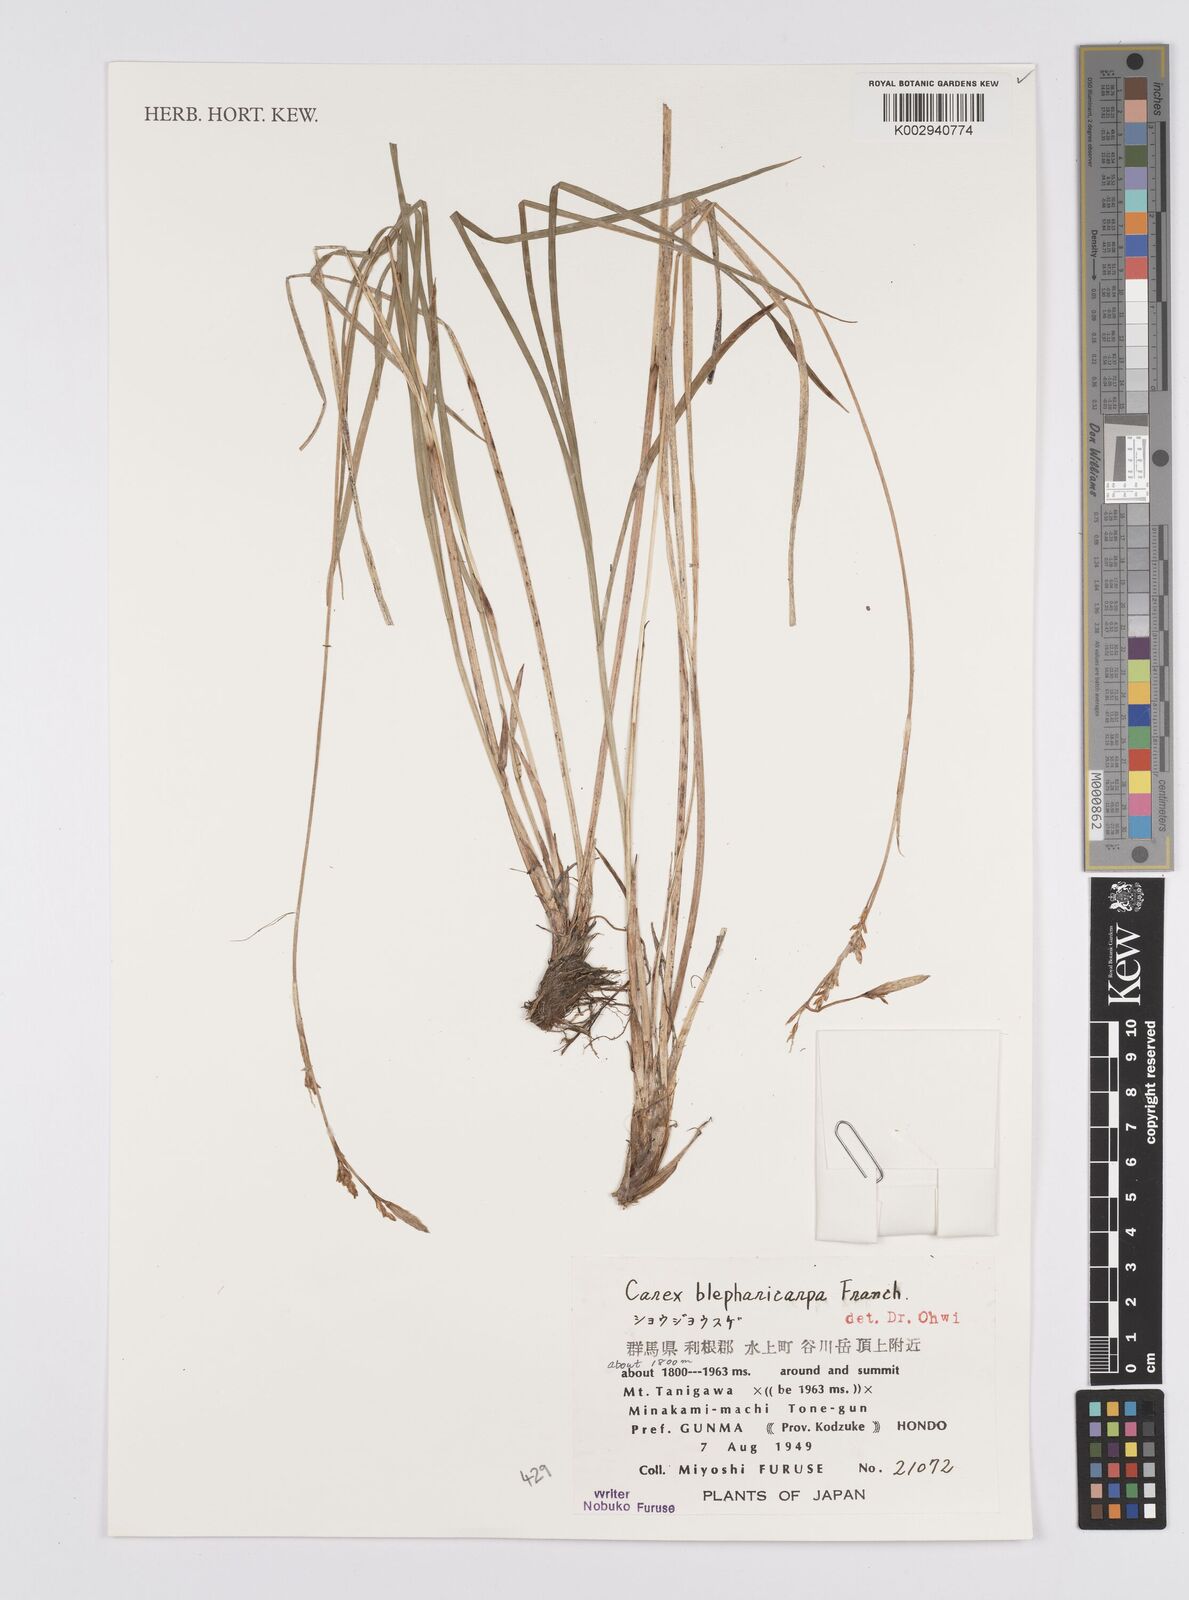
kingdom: Plantae
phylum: Tracheophyta
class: Liliopsida
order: Poales
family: Cyperaceae
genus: Carex
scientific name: Carex blepharicarpa
